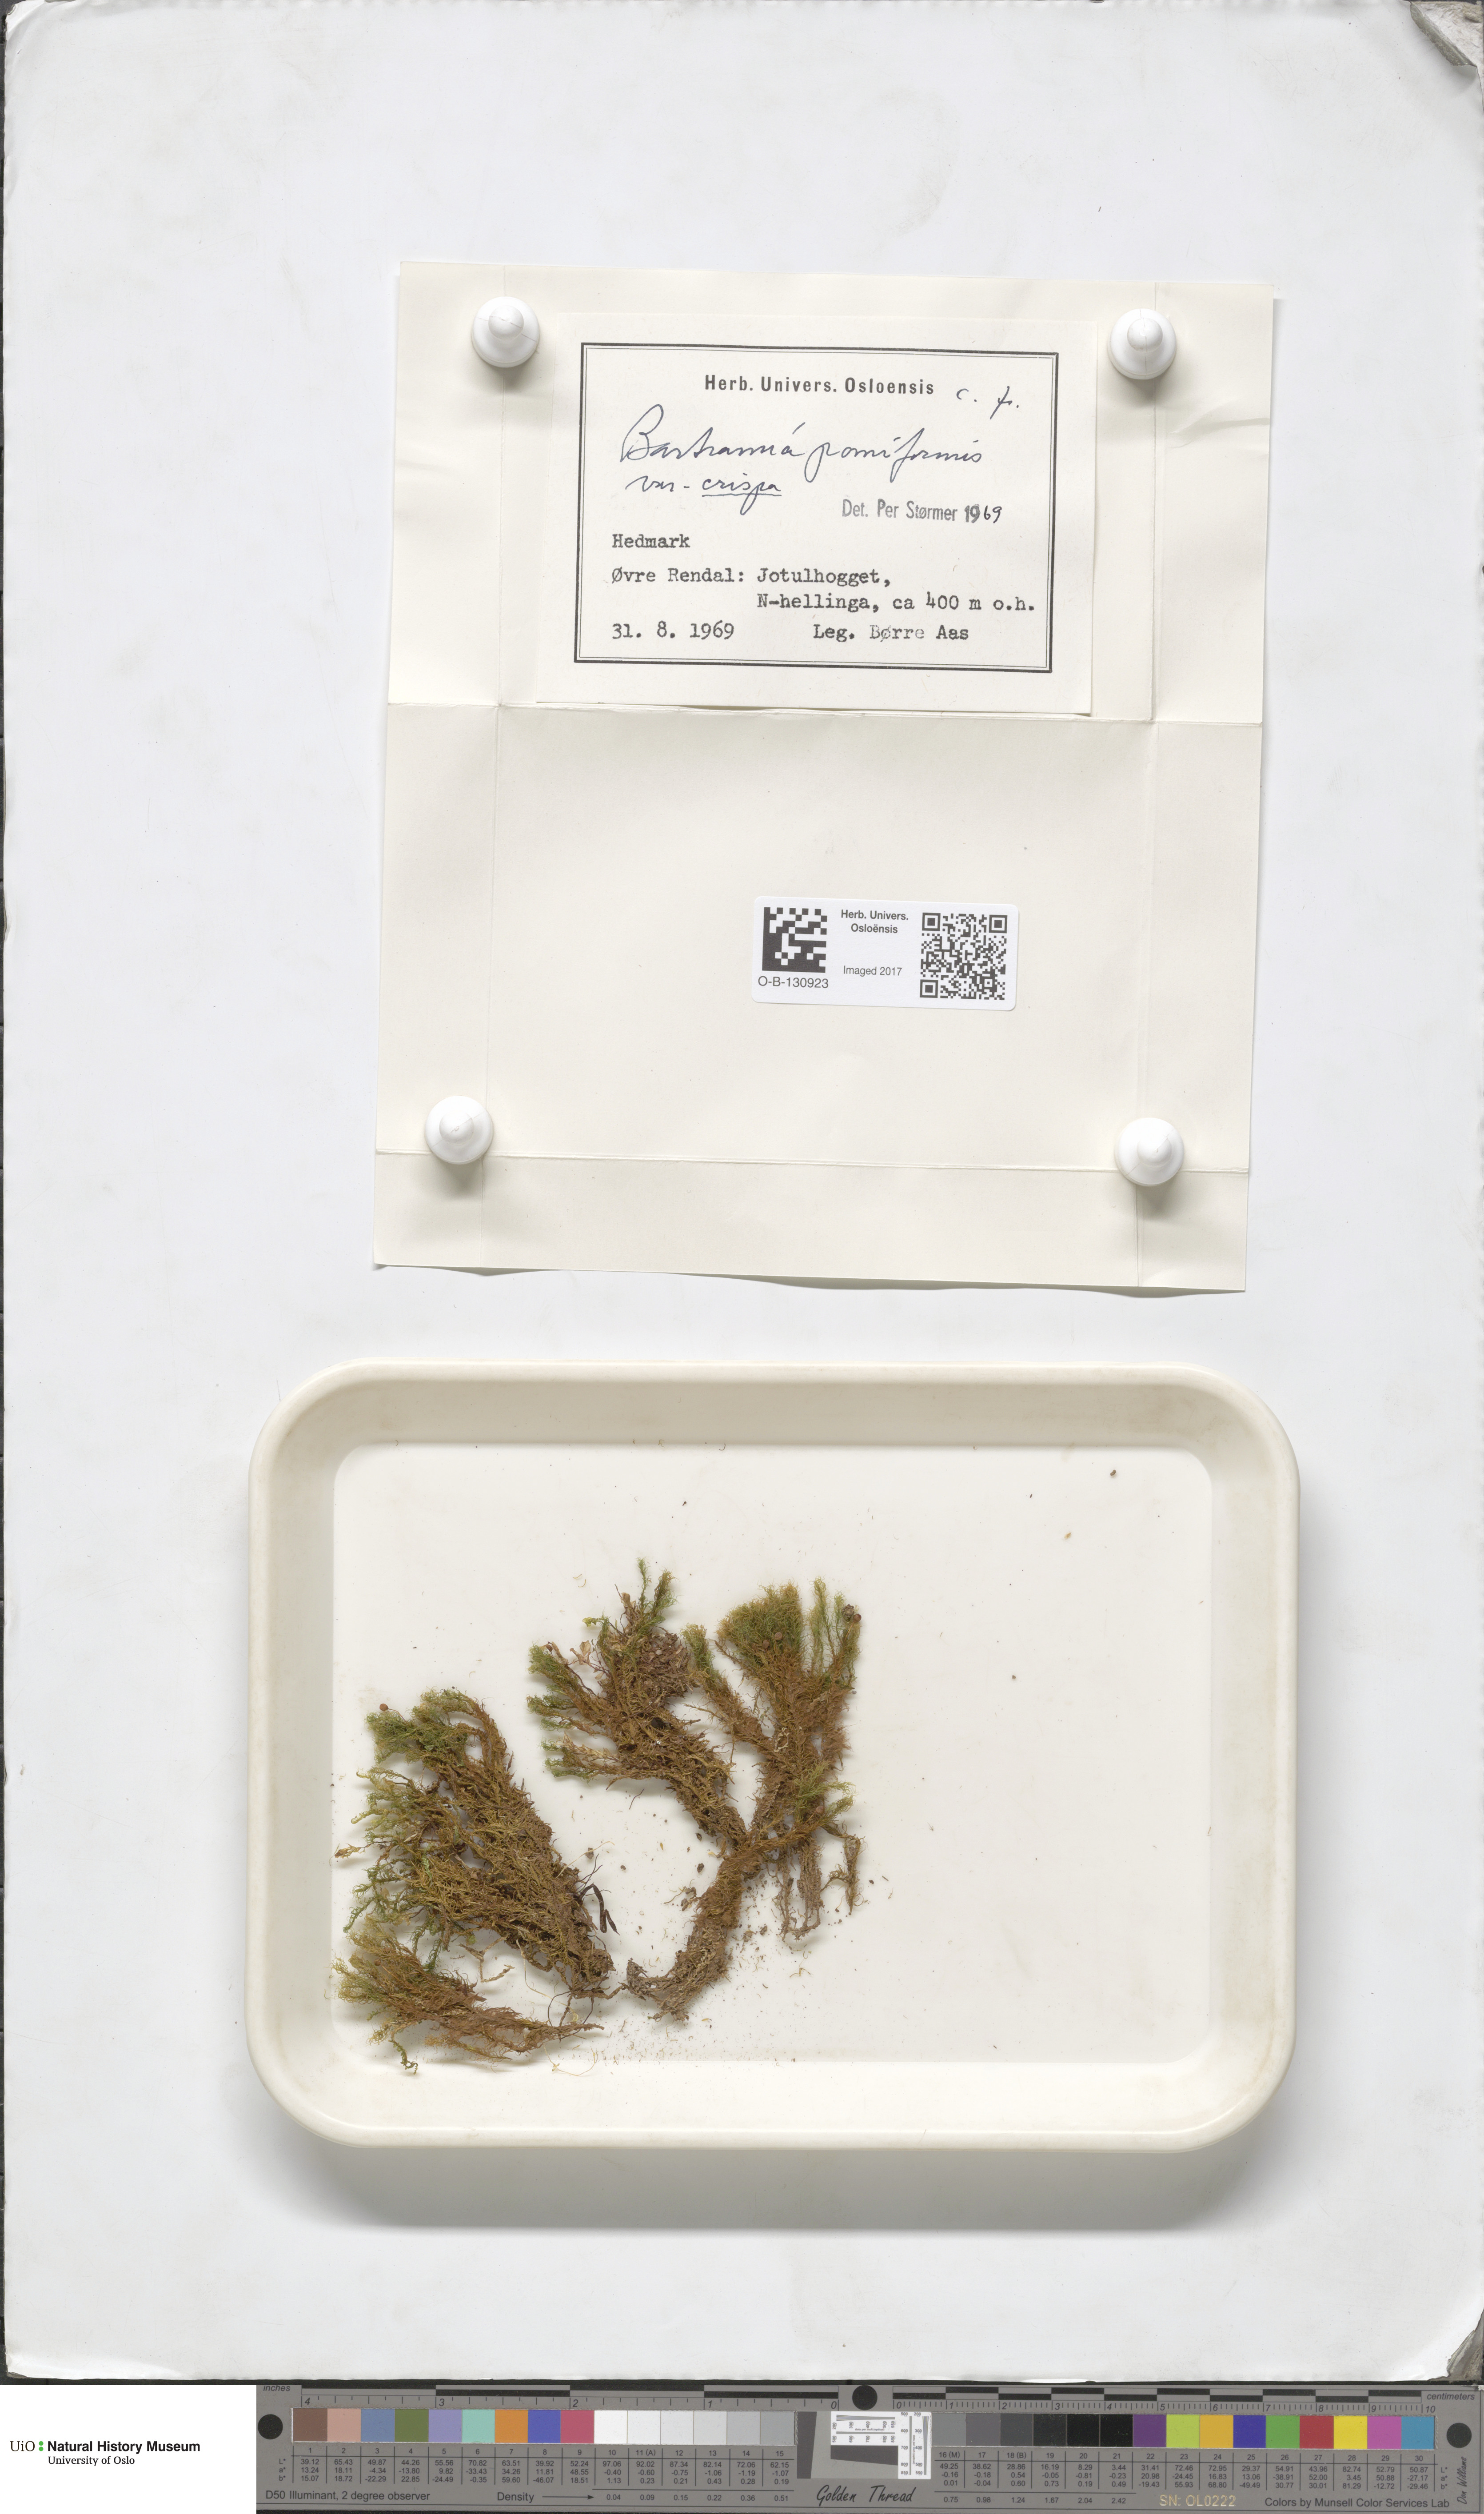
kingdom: Plantae
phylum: Bryophyta
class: Bryopsida
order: Bartramiales
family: Bartramiaceae
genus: Bartramia
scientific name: Bartramia pomiformis
